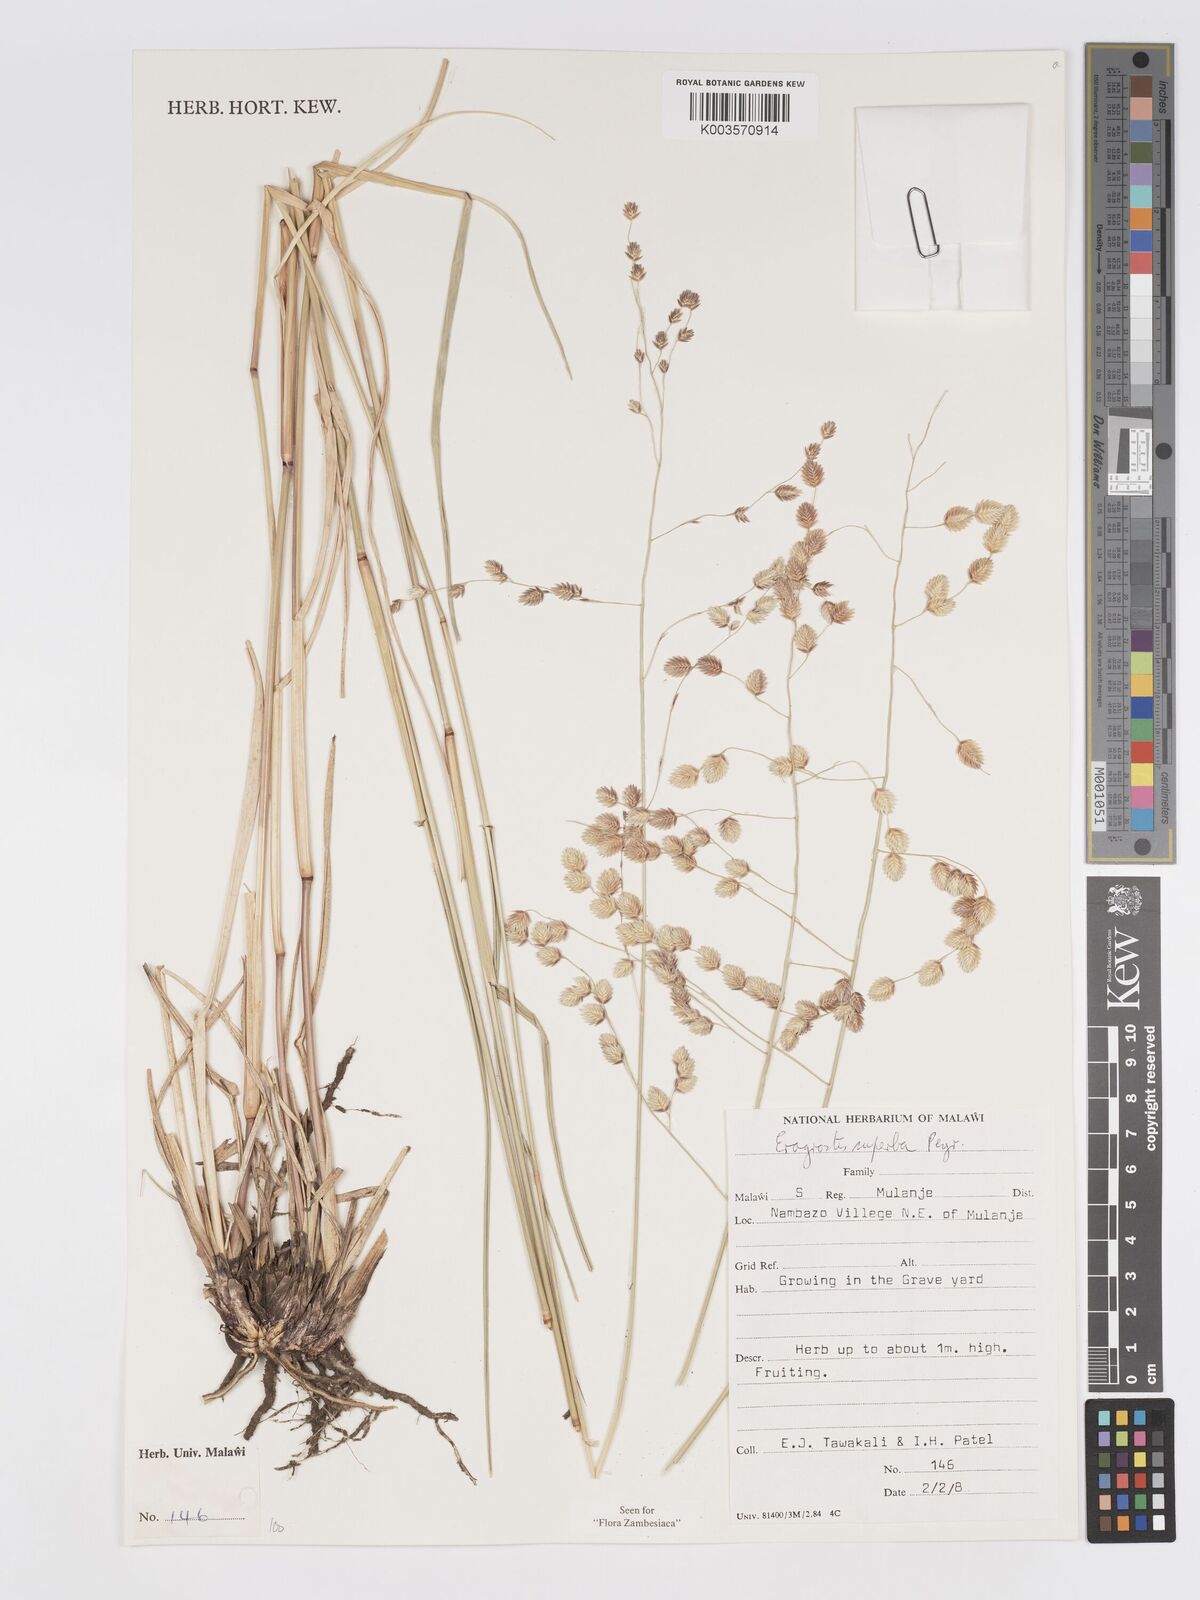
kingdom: Plantae
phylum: Tracheophyta
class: Liliopsida
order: Poales
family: Poaceae
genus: Eragrostis
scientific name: Eragrostis superba
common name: Wilman lovegrass
